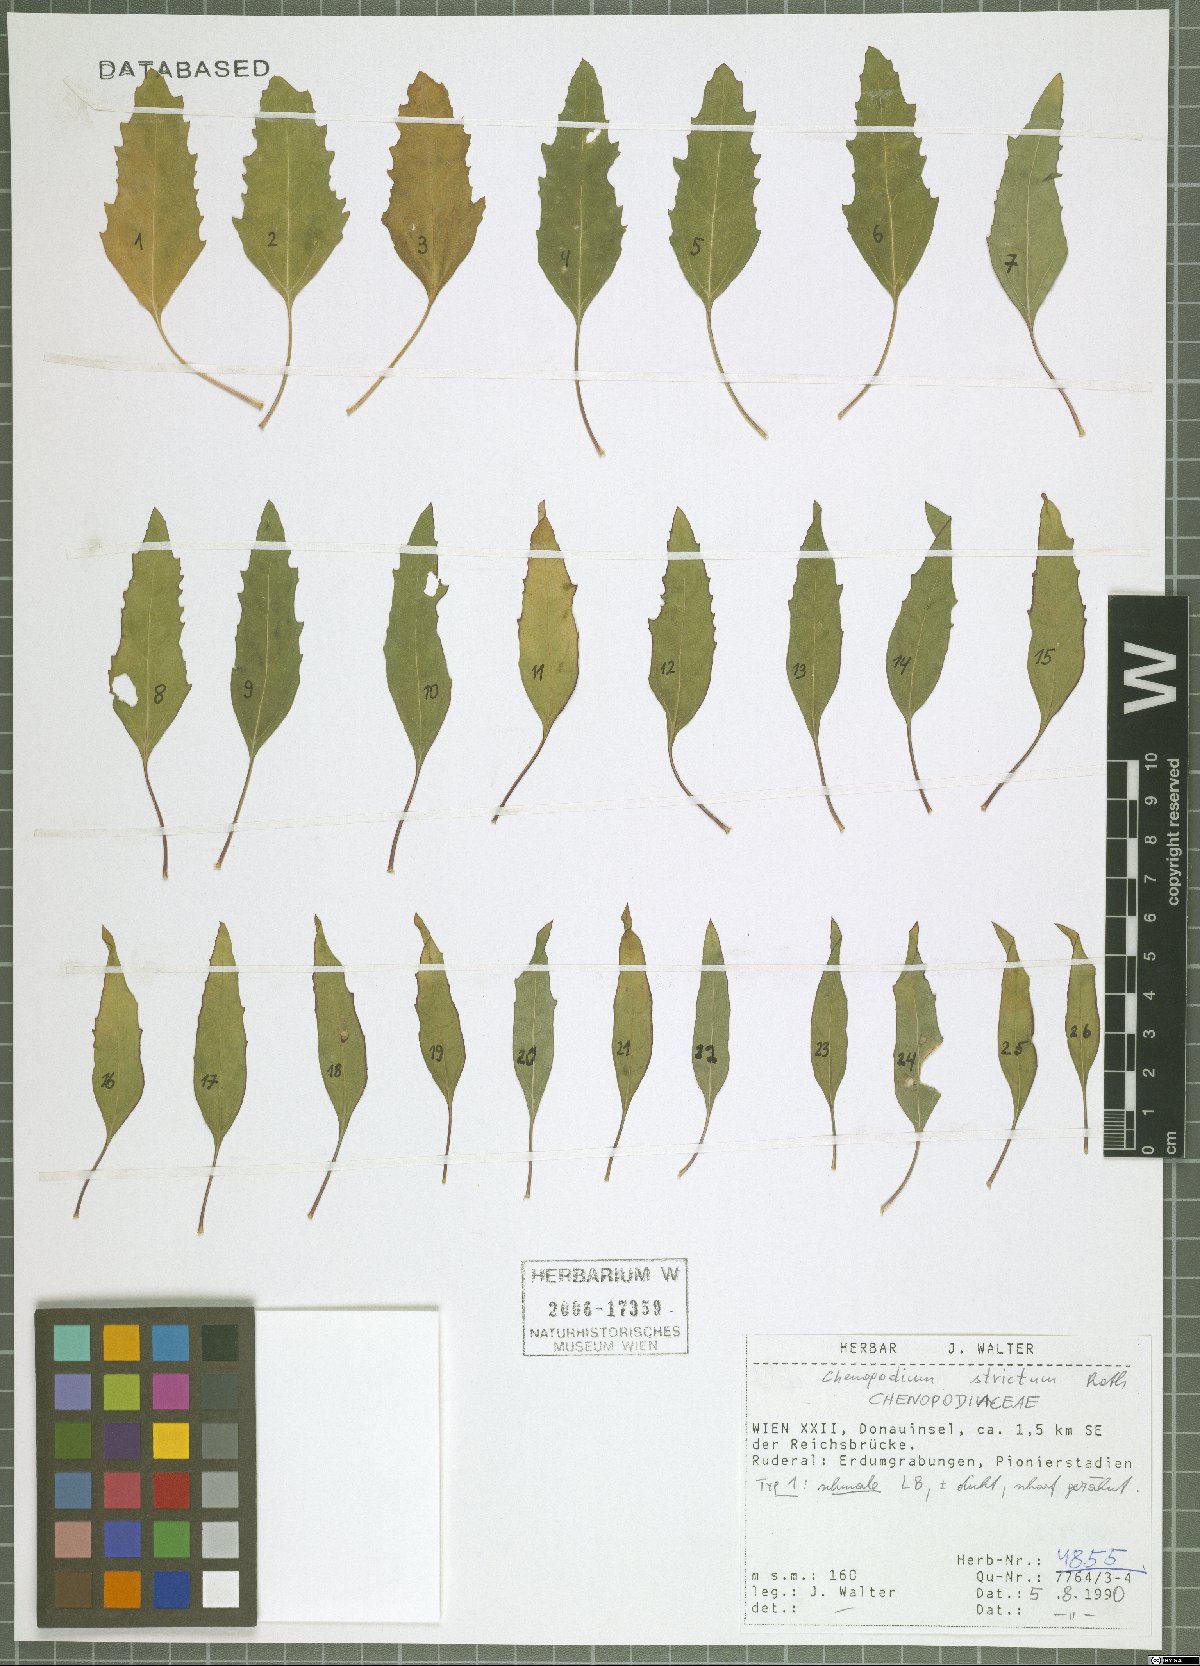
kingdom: Plantae
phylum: Tracheophyta
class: Magnoliopsida
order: Caryophyllales
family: Amaranthaceae
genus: Chenopodium
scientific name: Chenopodium album
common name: Fat-hen
